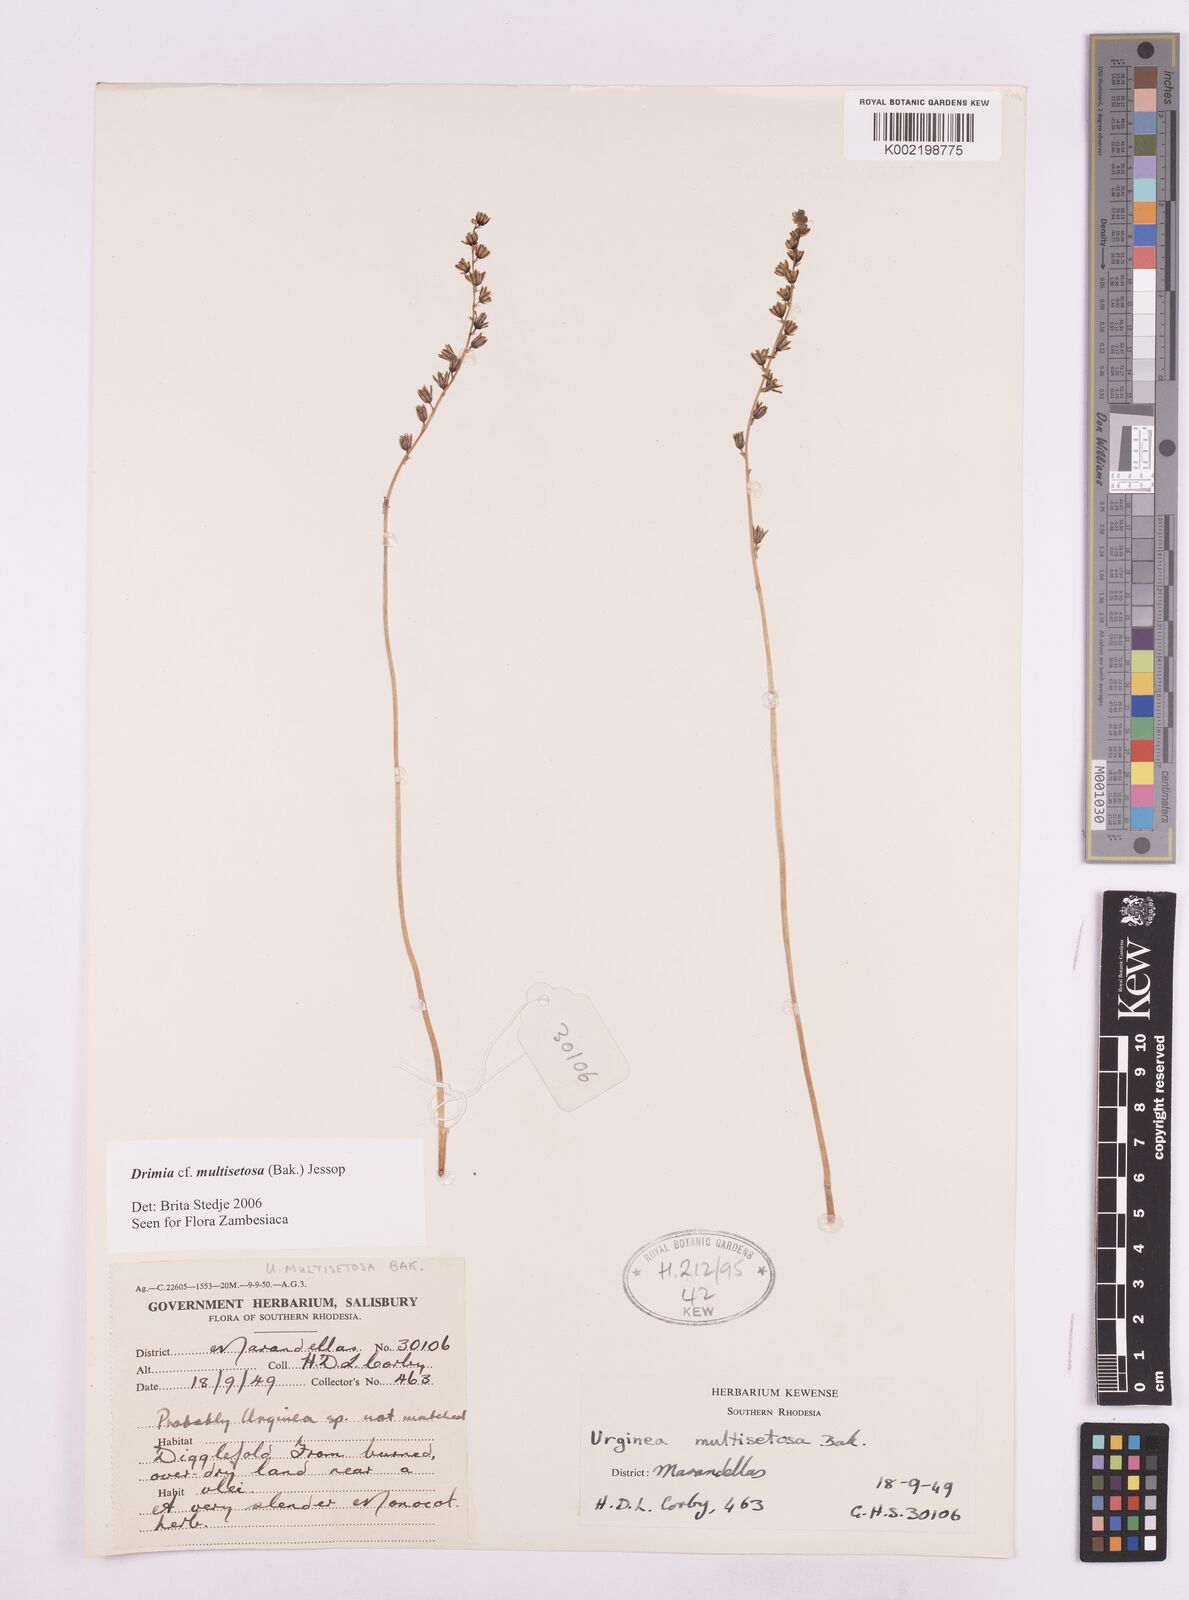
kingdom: Plantae
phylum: Tracheophyta
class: Liliopsida
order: Asparagales
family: Asparagaceae
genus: Drimia
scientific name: Drimia multisetosa
